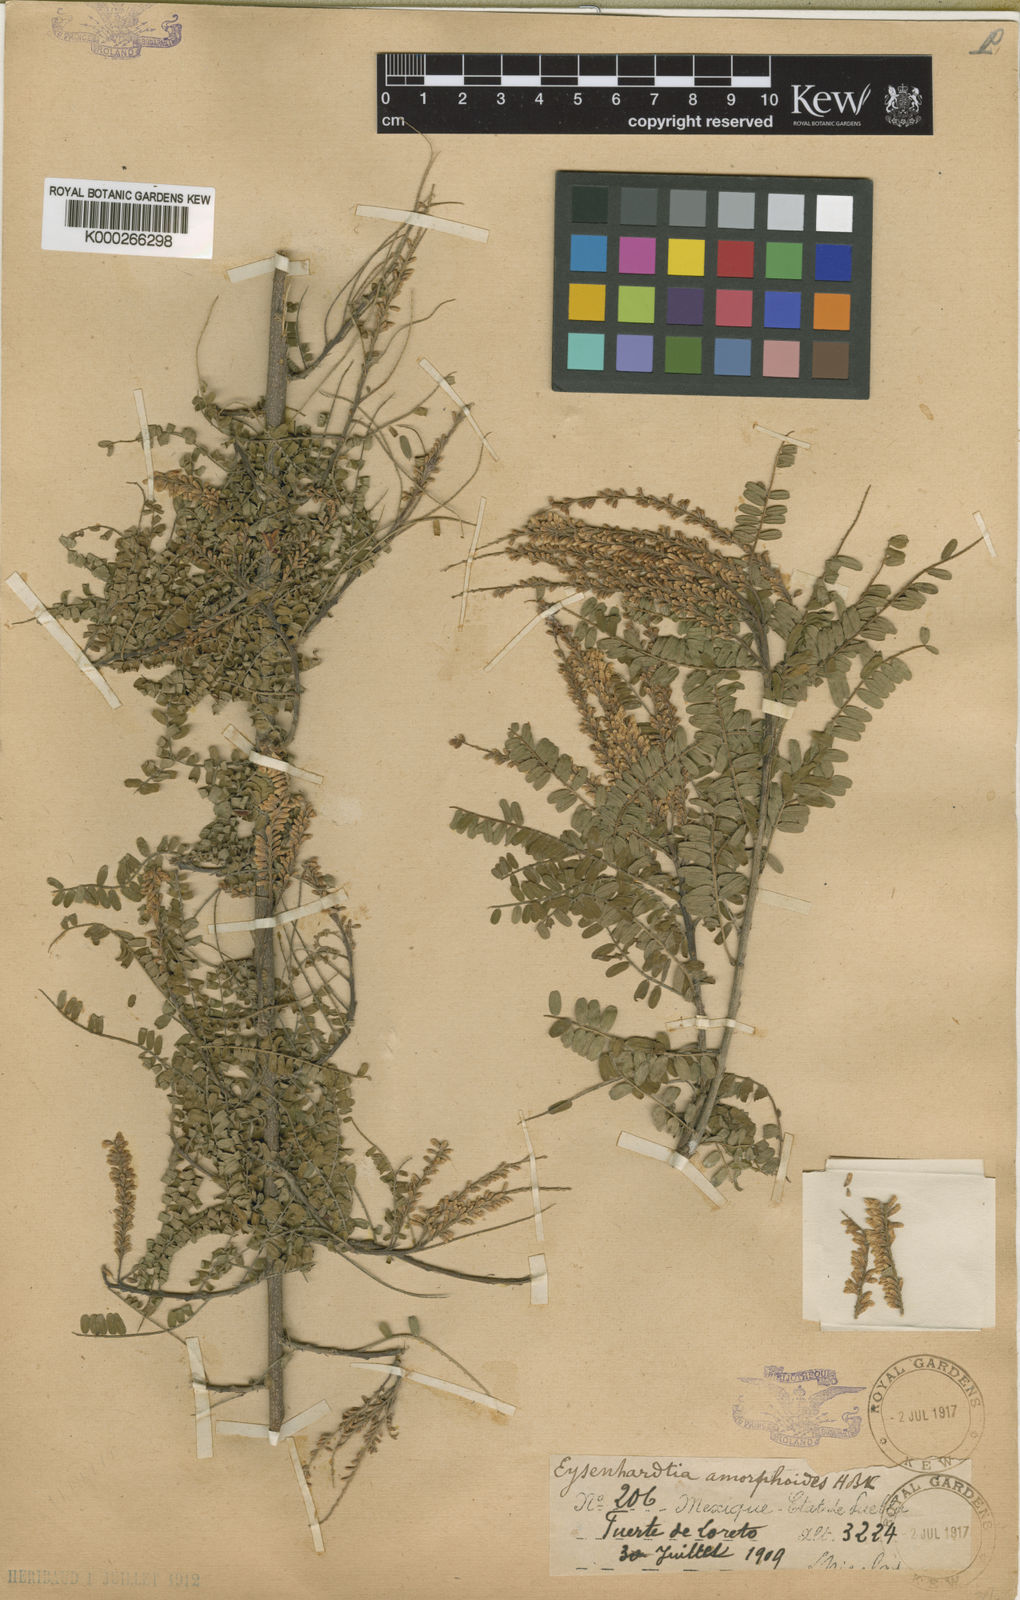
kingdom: Plantae
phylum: Tracheophyta
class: Magnoliopsida
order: Fabales
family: Fabaceae
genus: Eysenhardtia
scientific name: Eysenhardtia polystachya
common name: Kidneywood
